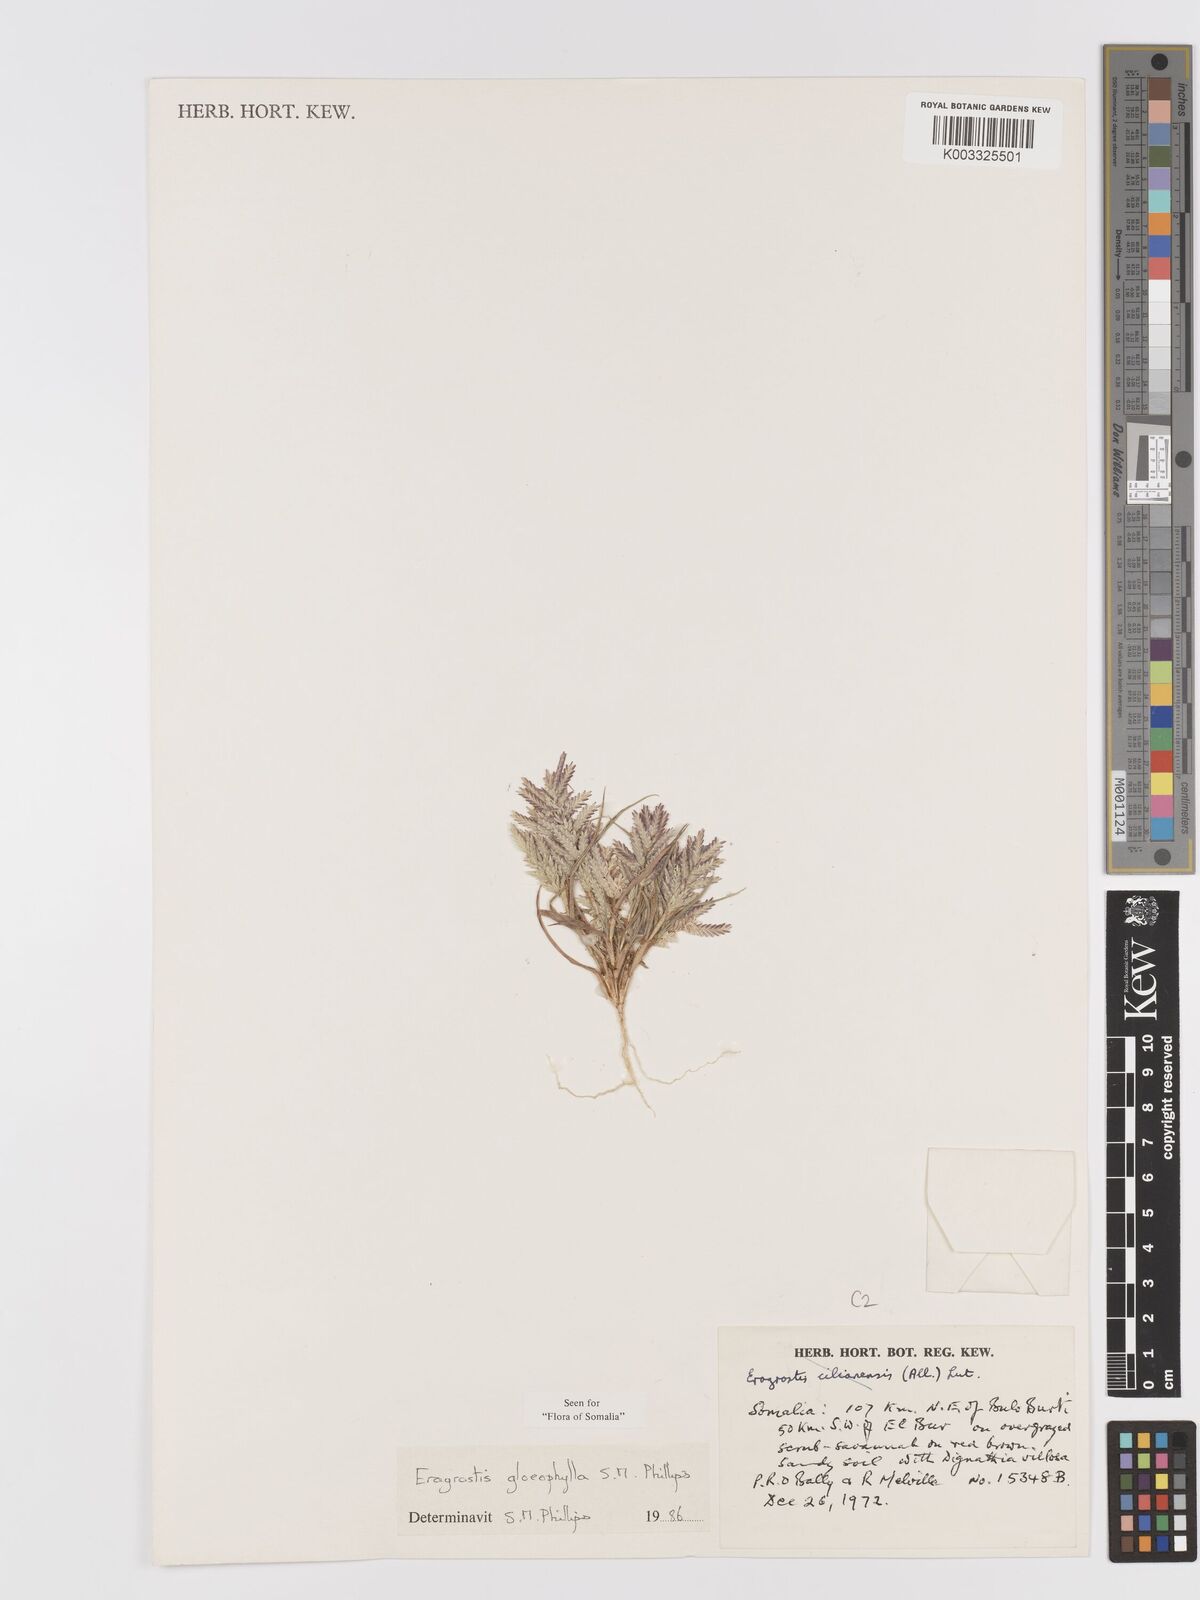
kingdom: Plantae
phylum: Tracheophyta
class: Liliopsida
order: Poales
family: Poaceae
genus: Eragrostis
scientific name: Eragrostis gloeophylla
